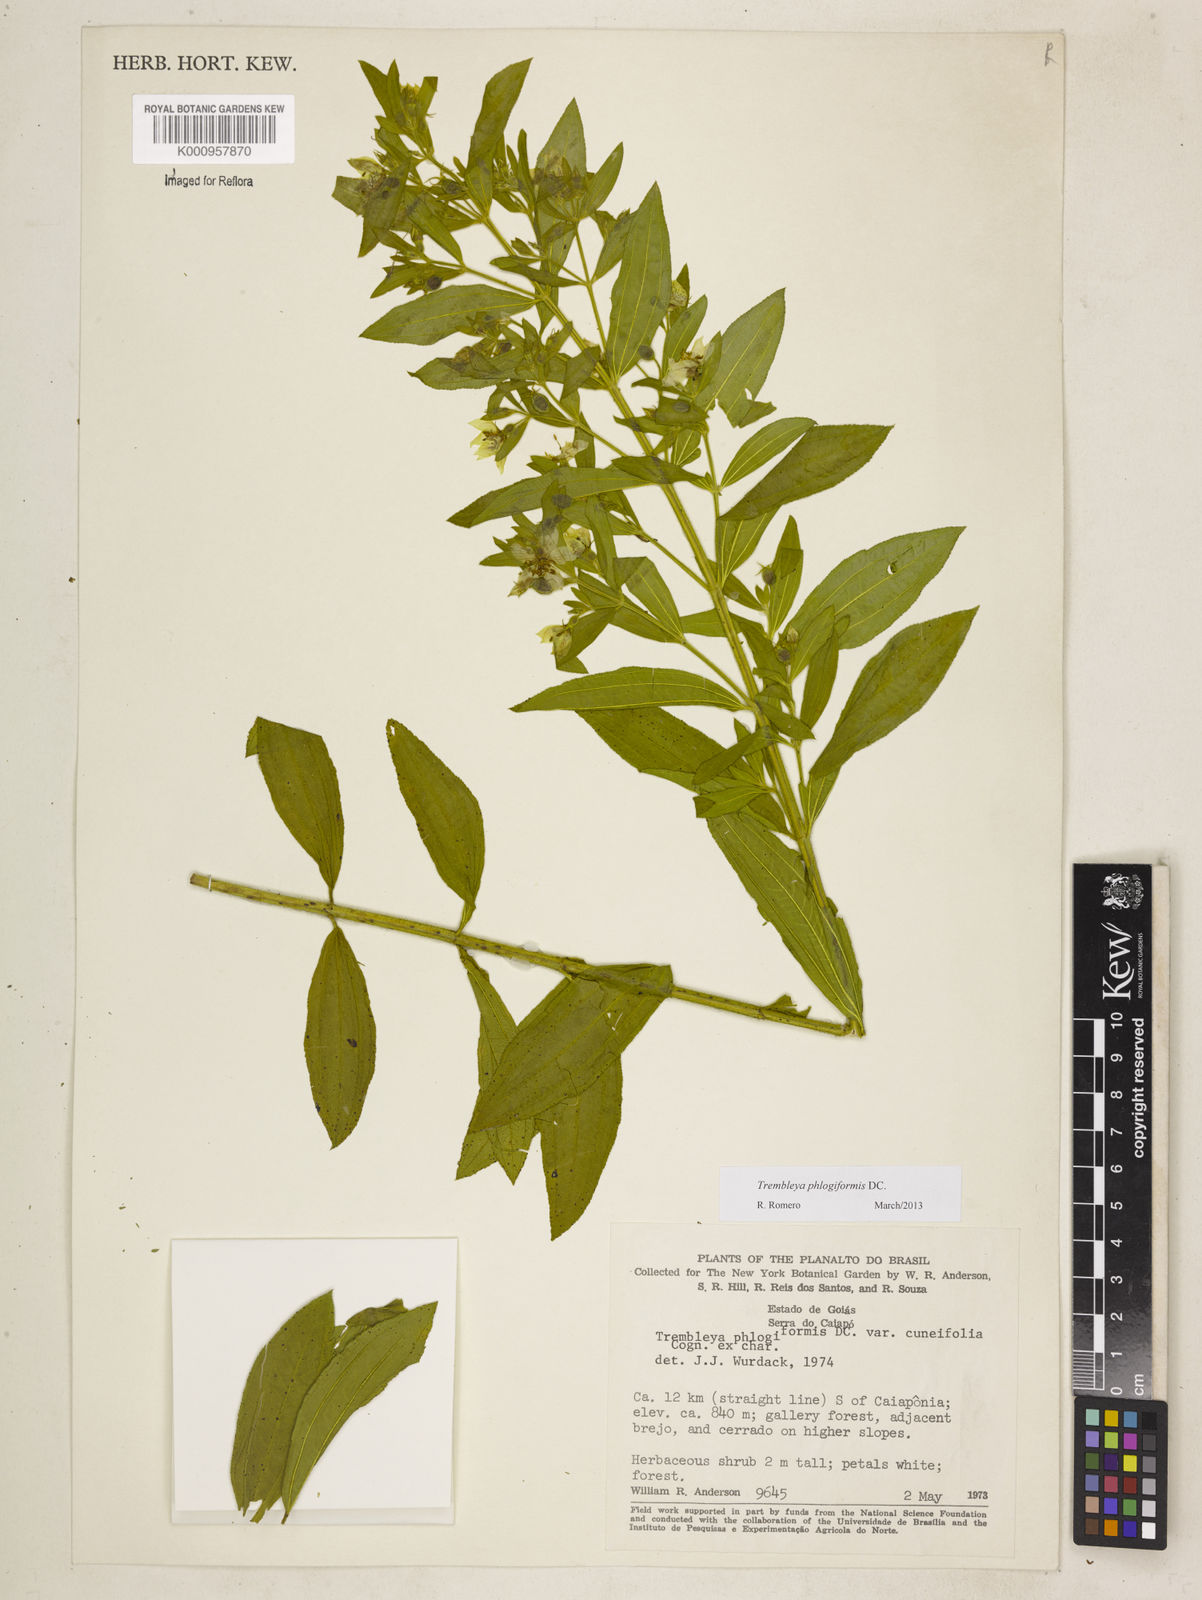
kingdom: Plantae
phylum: Tracheophyta
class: Magnoliopsida
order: Myrtales
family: Melastomataceae
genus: Microlicia
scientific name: Microlicia phlogiformis
